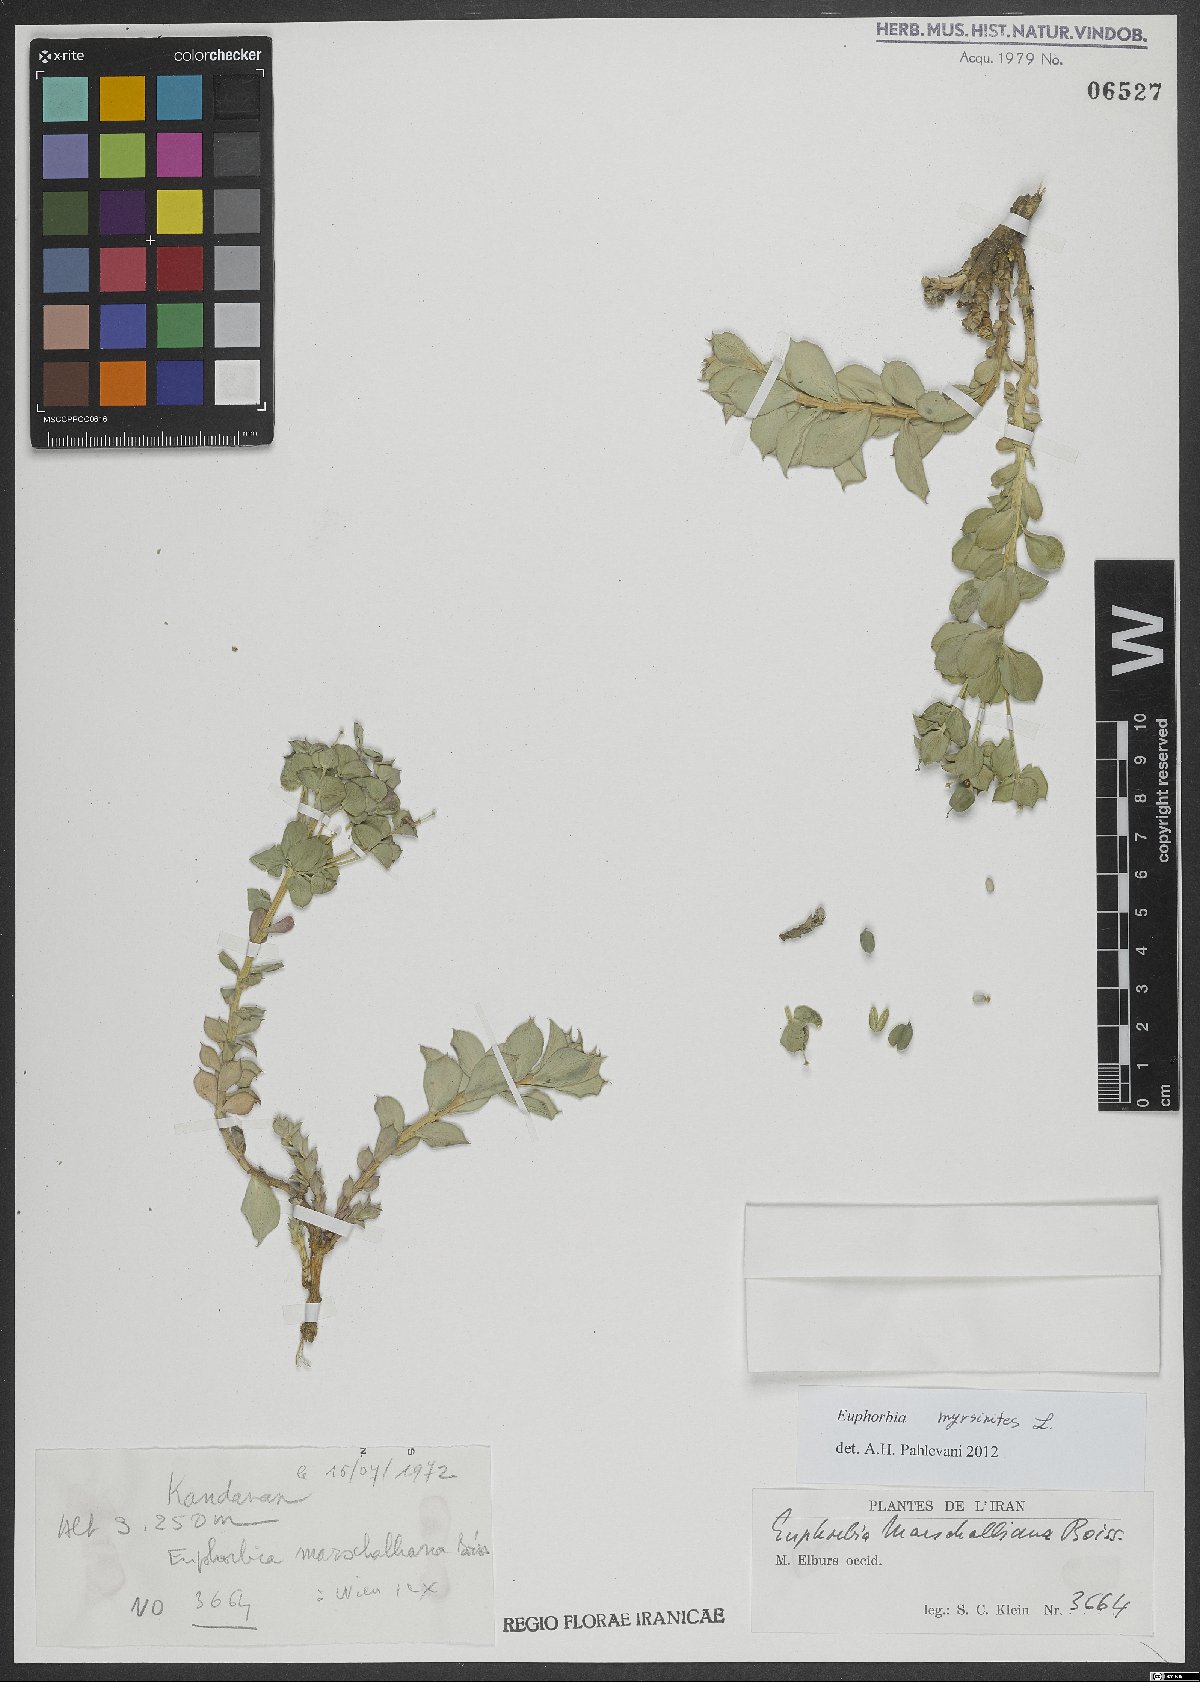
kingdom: Plantae
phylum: Tracheophyta
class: Magnoliopsida
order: Malpighiales
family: Euphorbiaceae
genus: Euphorbia
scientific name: Euphorbia myrsinites
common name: Myrtle spurge
